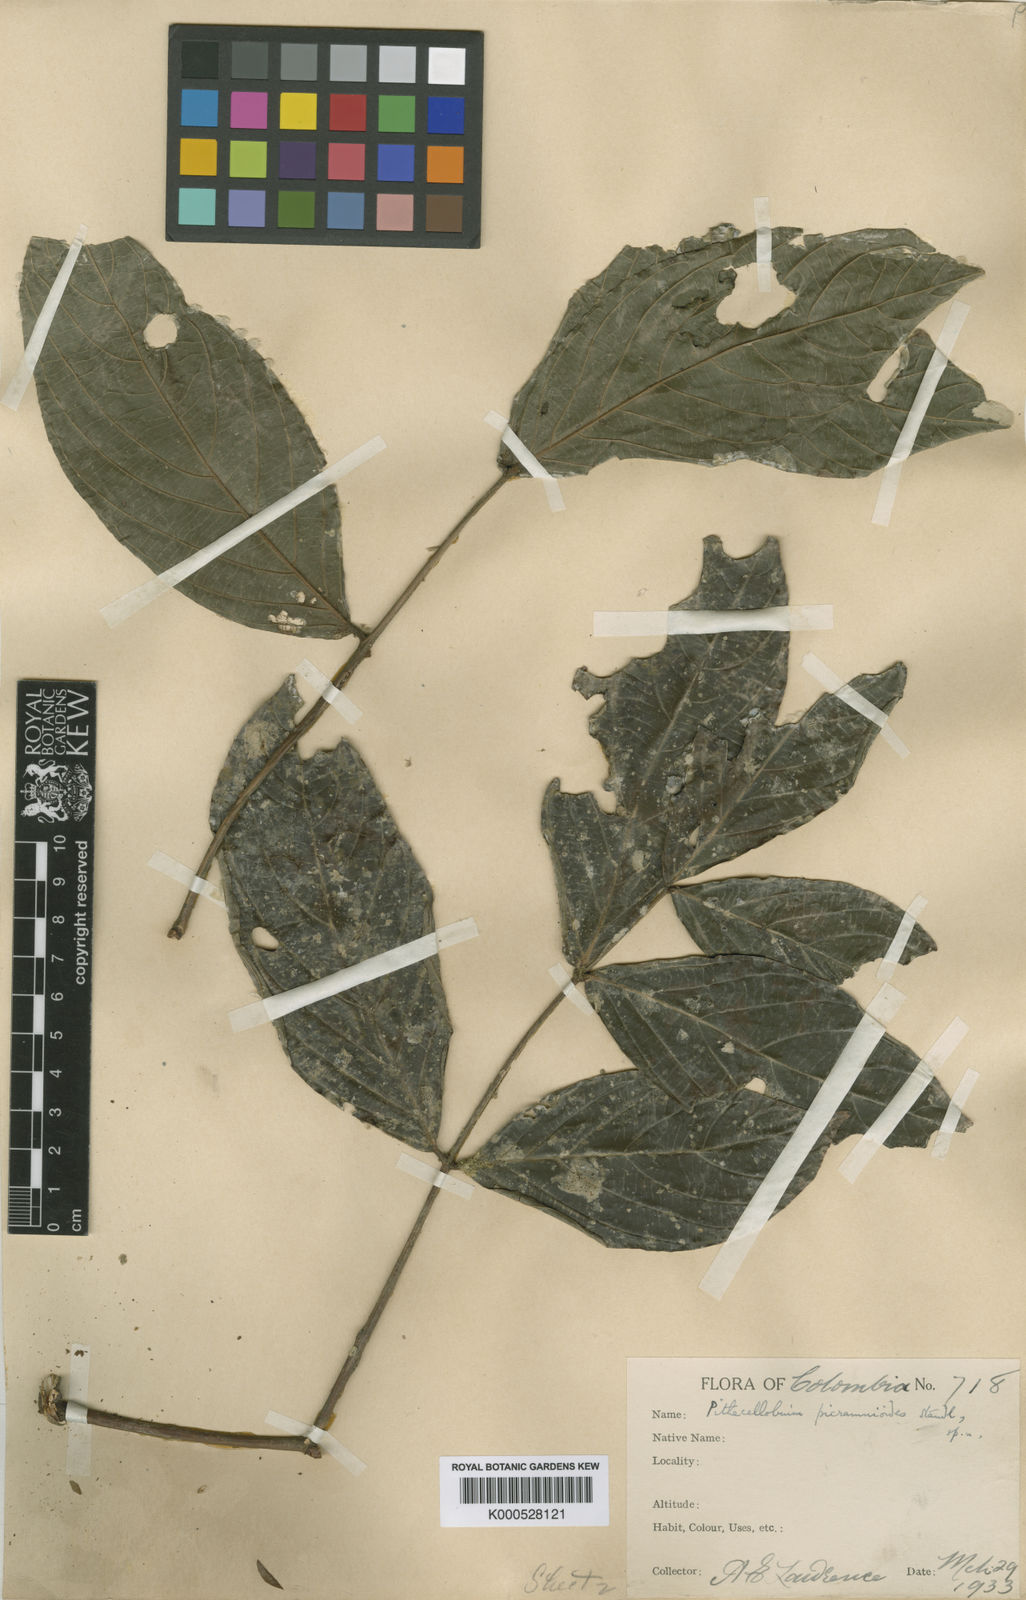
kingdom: Plantae
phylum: Tracheophyta
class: Magnoliopsida
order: Fabales
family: Fabaceae
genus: Zygia
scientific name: Zygia picramnioides
